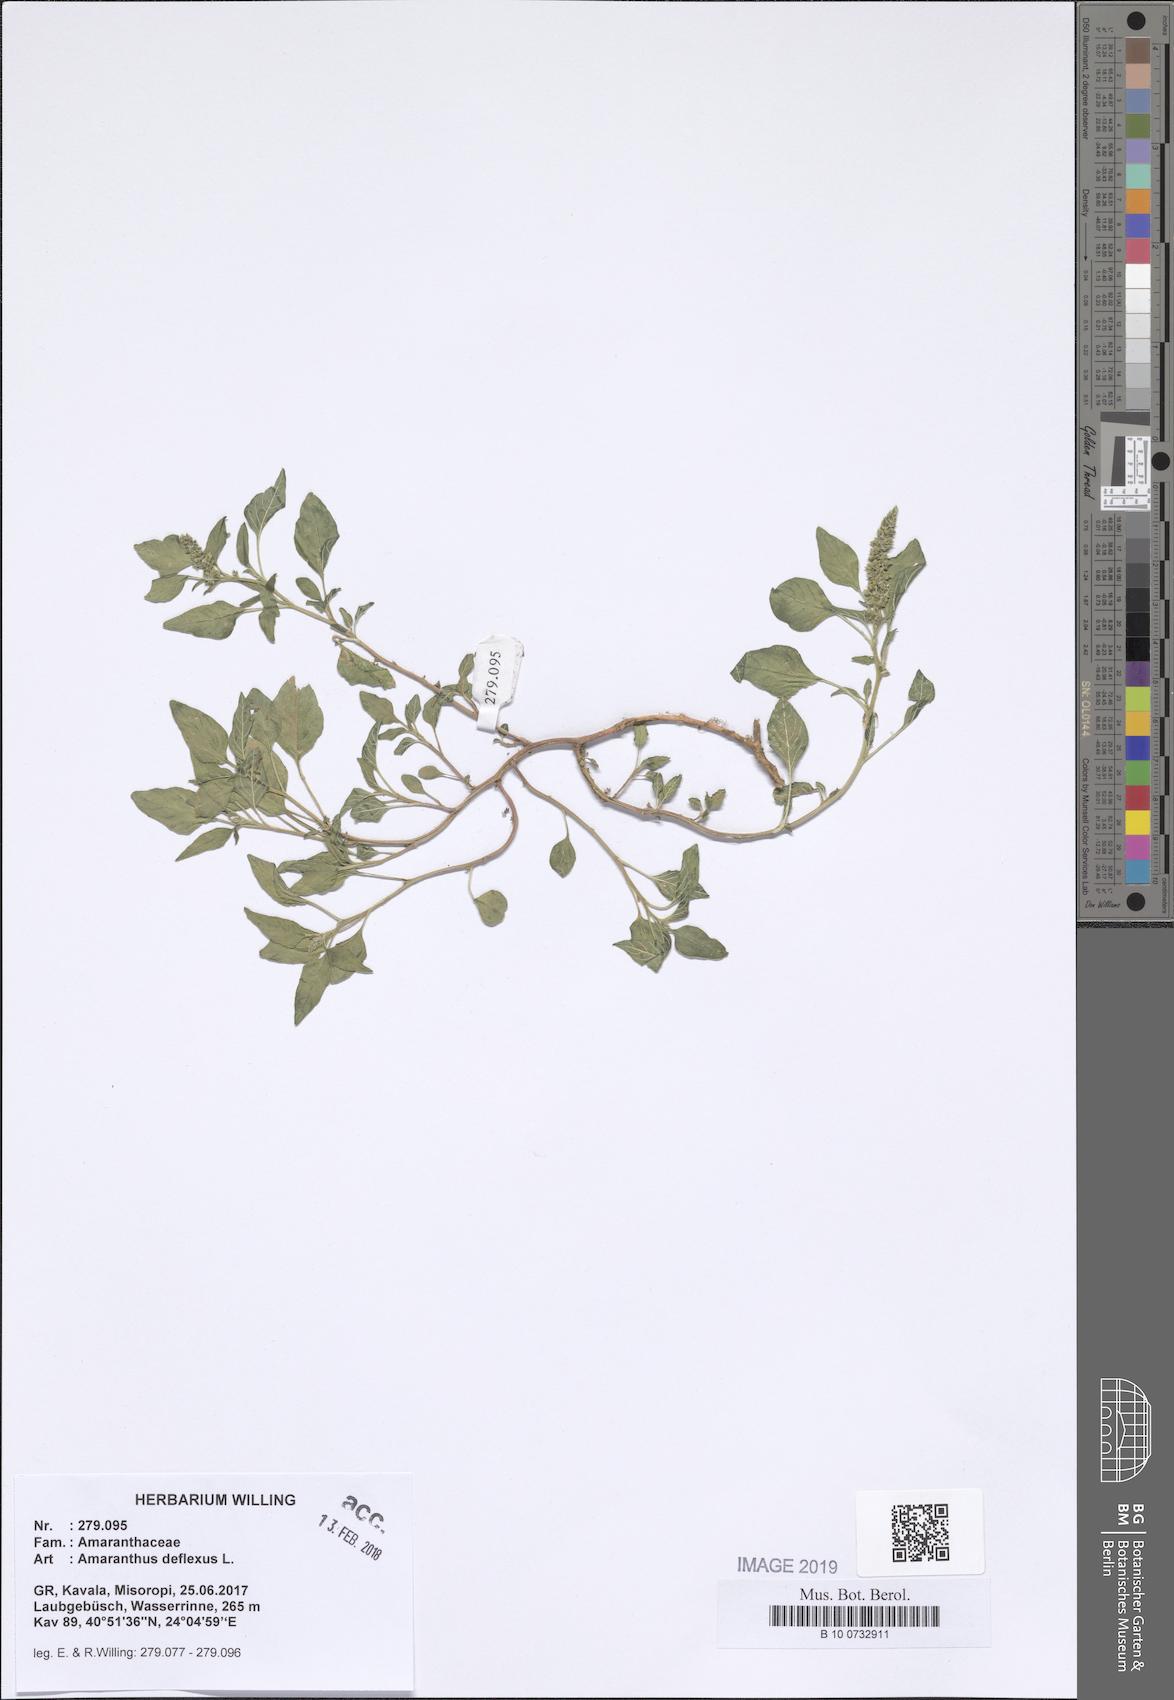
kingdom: Plantae
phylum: Tracheophyta
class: Magnoliopsida
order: Caryophyllales
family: Amaranthaceae
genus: Amaranthus
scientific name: Amaranthus deflexus
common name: Perennial pigweed
